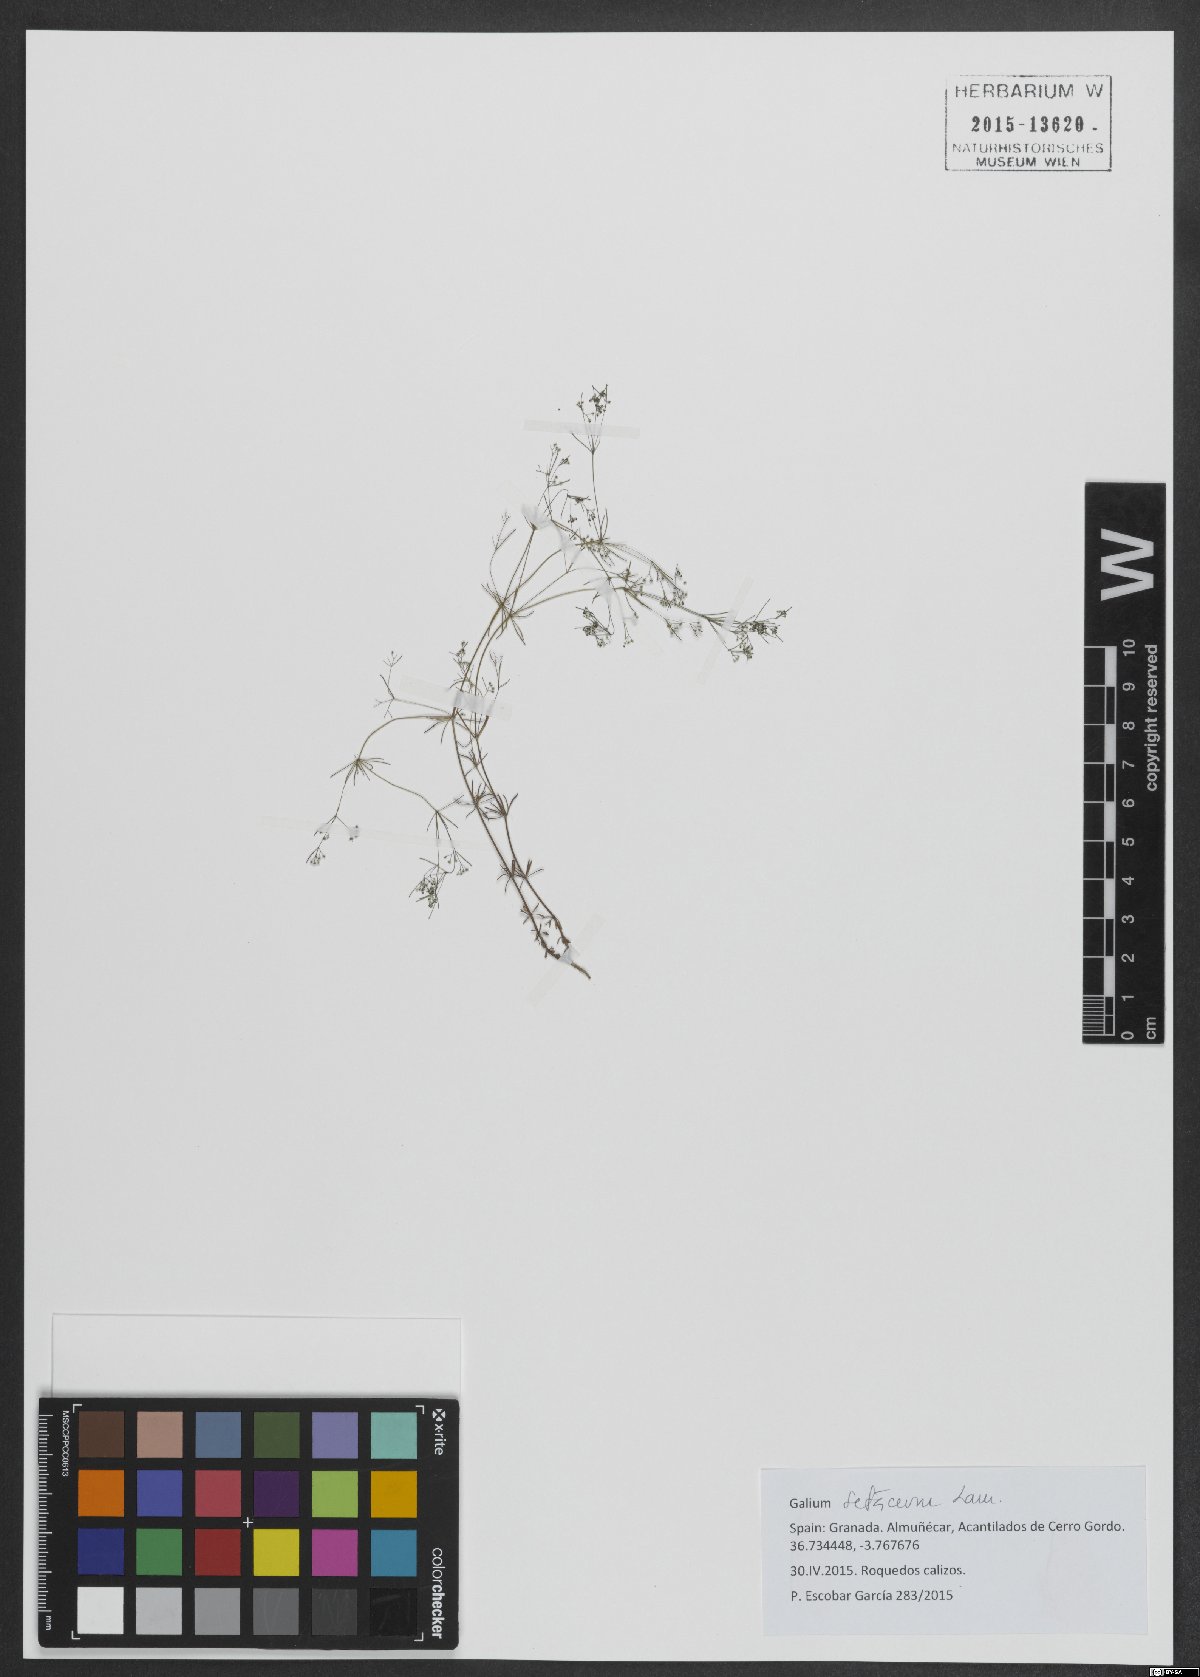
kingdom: Plantae
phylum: Tracheophyta
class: Magnoliopsida
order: Gentianales
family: Rubiaceae
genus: Galium
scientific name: Galium setaceum
